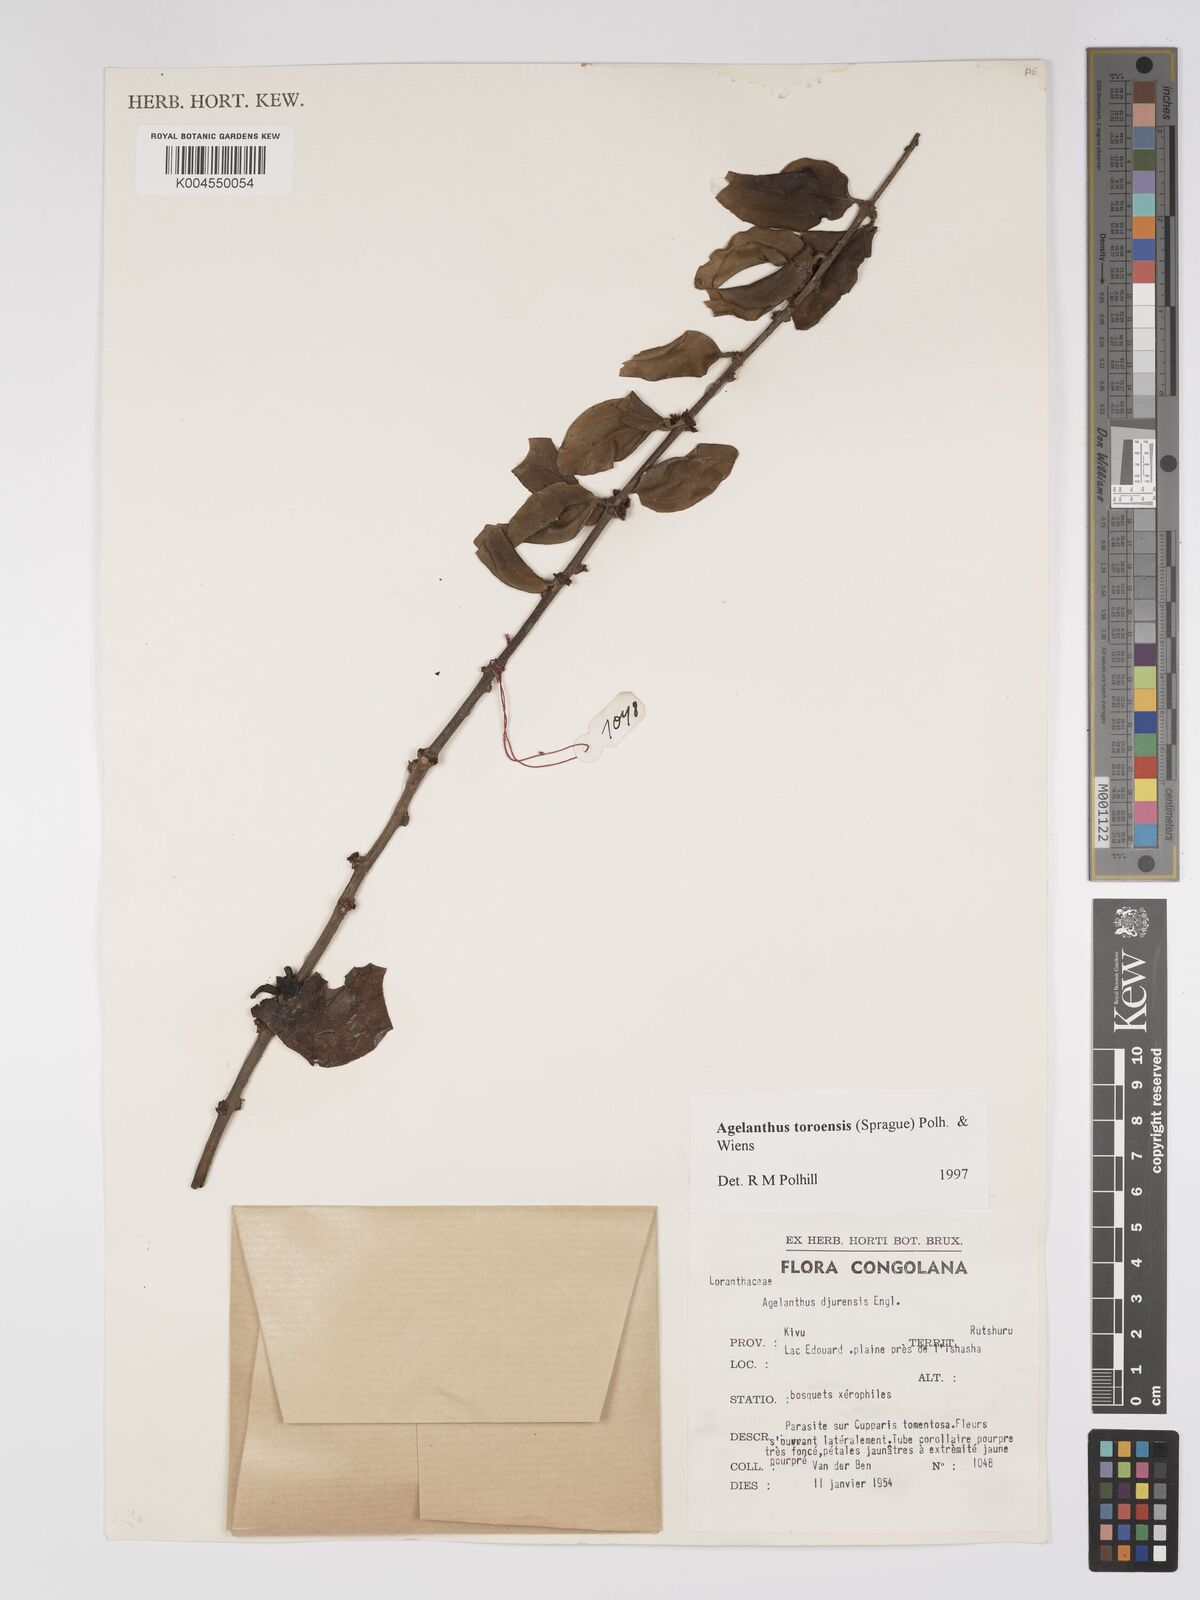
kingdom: Plantae
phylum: Tracheophyta
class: Magnoliopsida
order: Santalales
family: Loranthaceae
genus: Agelanthus
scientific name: Agelanthus toroensis
